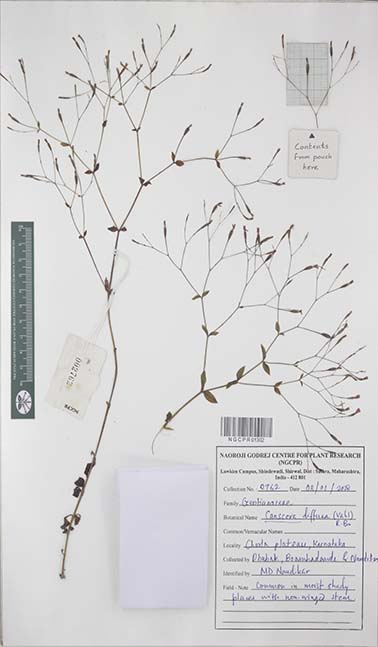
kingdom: Plantae
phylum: Tracheophyta
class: Magnoliopsida
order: Gentianales
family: Gentianaceae
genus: Canscora
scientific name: Canscora diffusa
